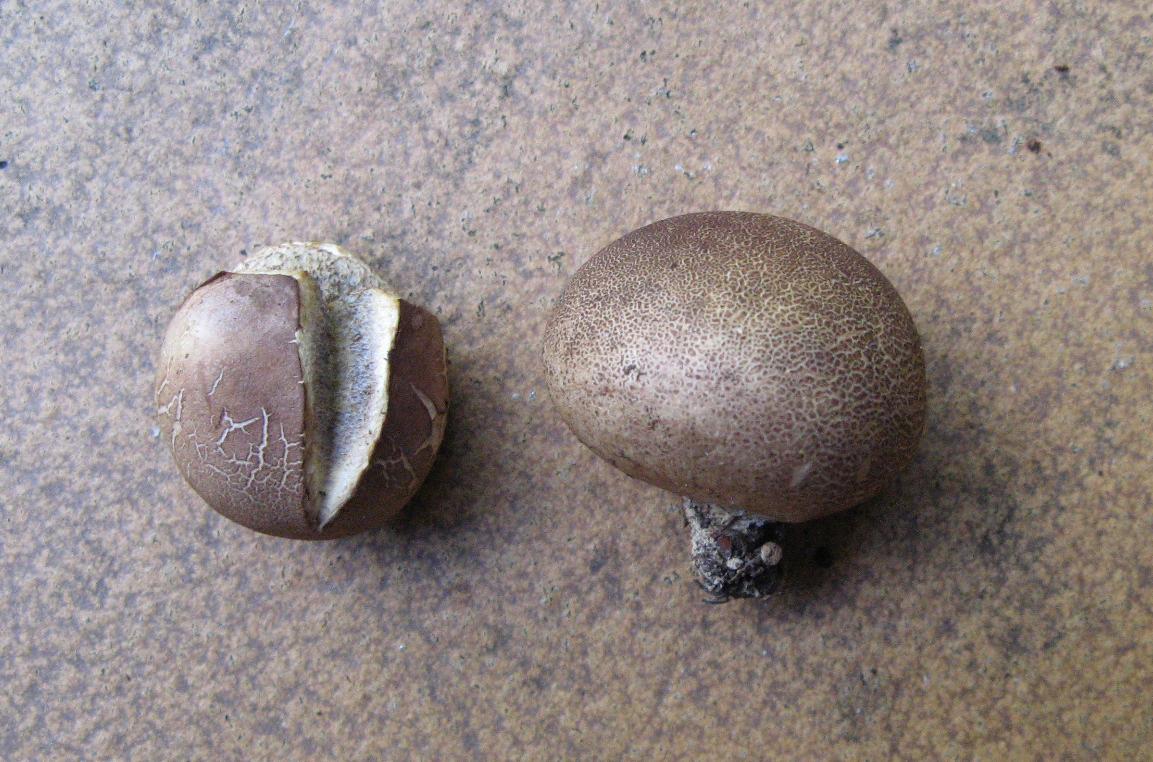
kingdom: Fungi
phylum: Basidiomycota
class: Agaricomycetes
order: Boletales
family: Sclerodermataceae
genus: Scleroderma
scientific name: Scleroderma
